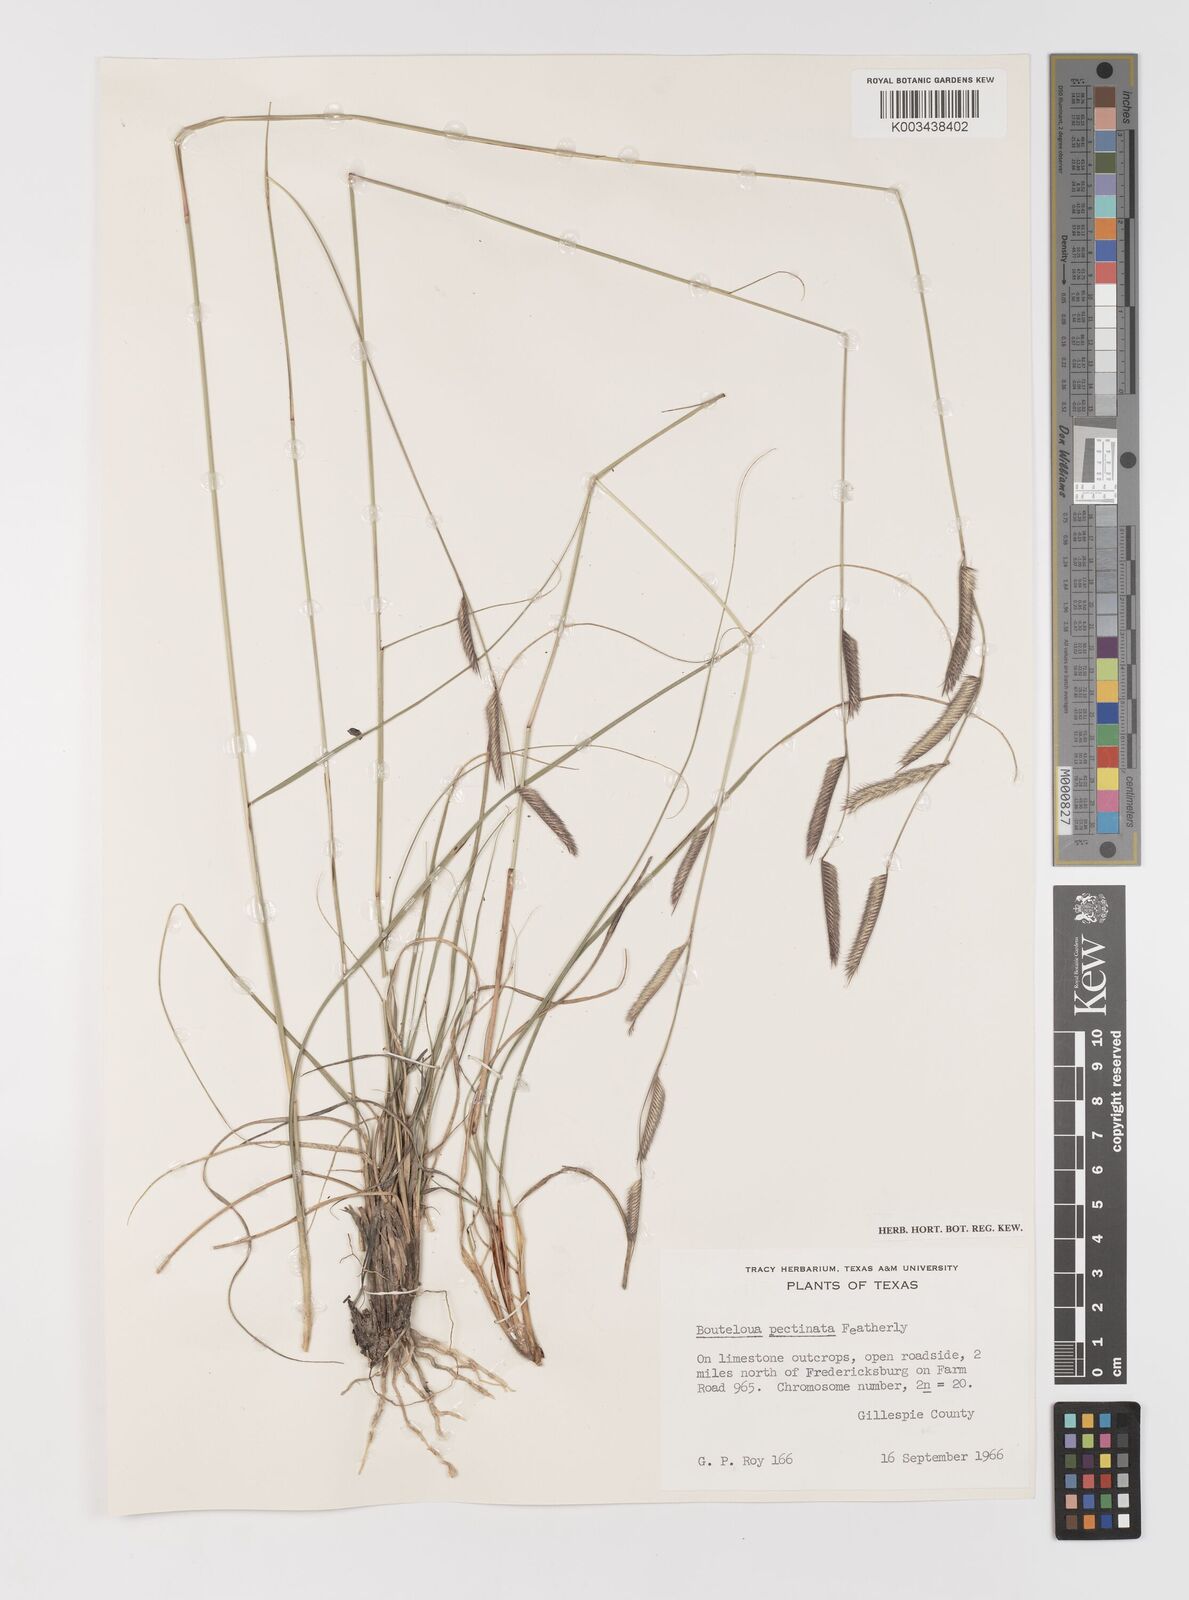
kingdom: Plantae
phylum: Tracheophyta
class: Liliopsida
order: Poales
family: Poaceae
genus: Bouteloua
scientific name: Bouteloua pectinata
